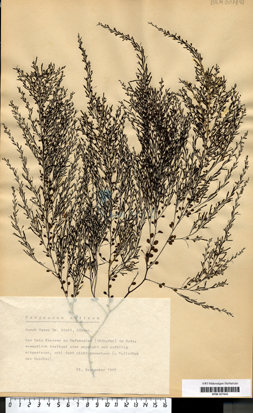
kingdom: Chromista
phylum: Ochrophyta
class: Phaeophyceae
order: Fucales
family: Sargassaceae
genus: Sargassum
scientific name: Sargassum muticum
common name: Japweed
